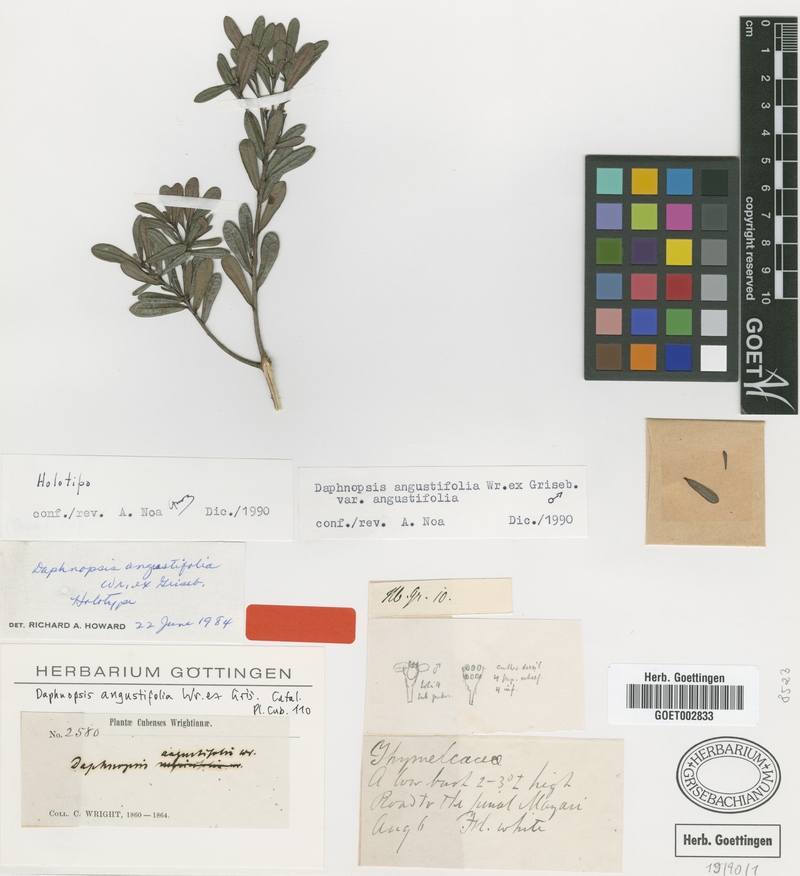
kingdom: Plantae
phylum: Tracheophyta
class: Magnoliopsida
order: Malvales
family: Thymelaeaceae
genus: Daphnopsis
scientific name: Daphnopsis angustifolia
